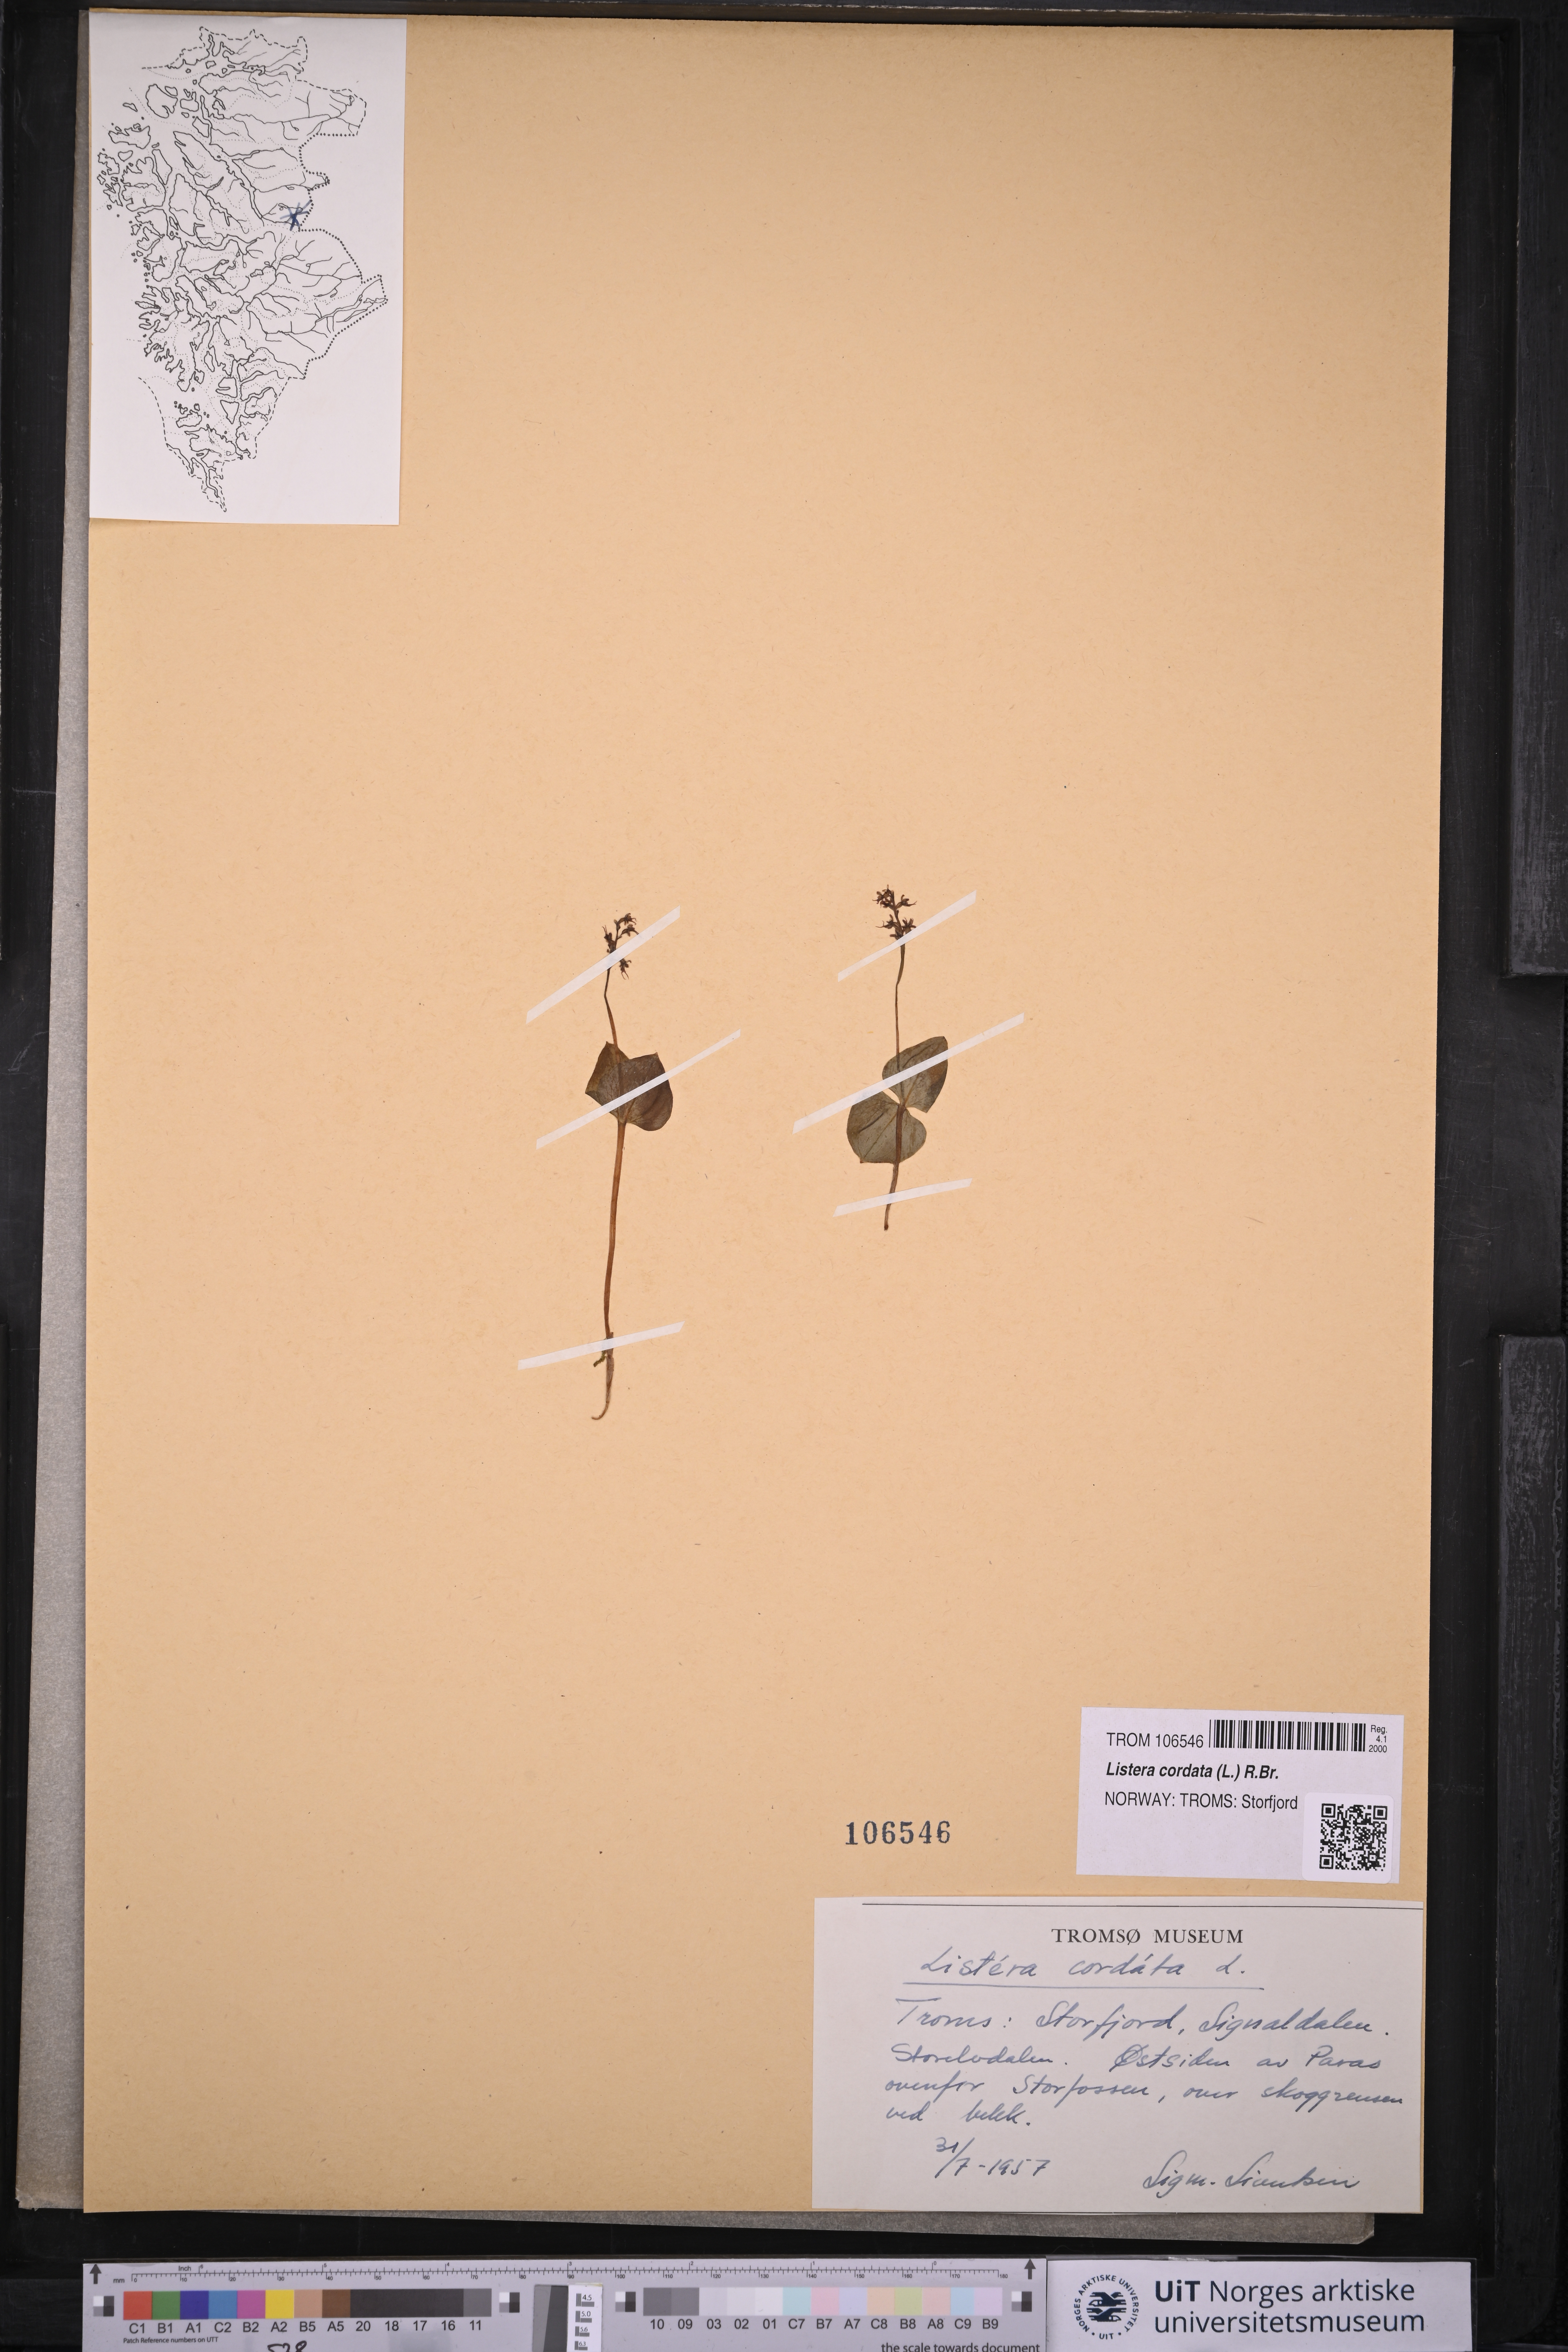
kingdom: Plantae
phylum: Tracheophyta
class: Liliopsida
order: Asparagales
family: Orchidaceae
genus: Neottia
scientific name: Neottia cordata
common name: Lesser twayblade
